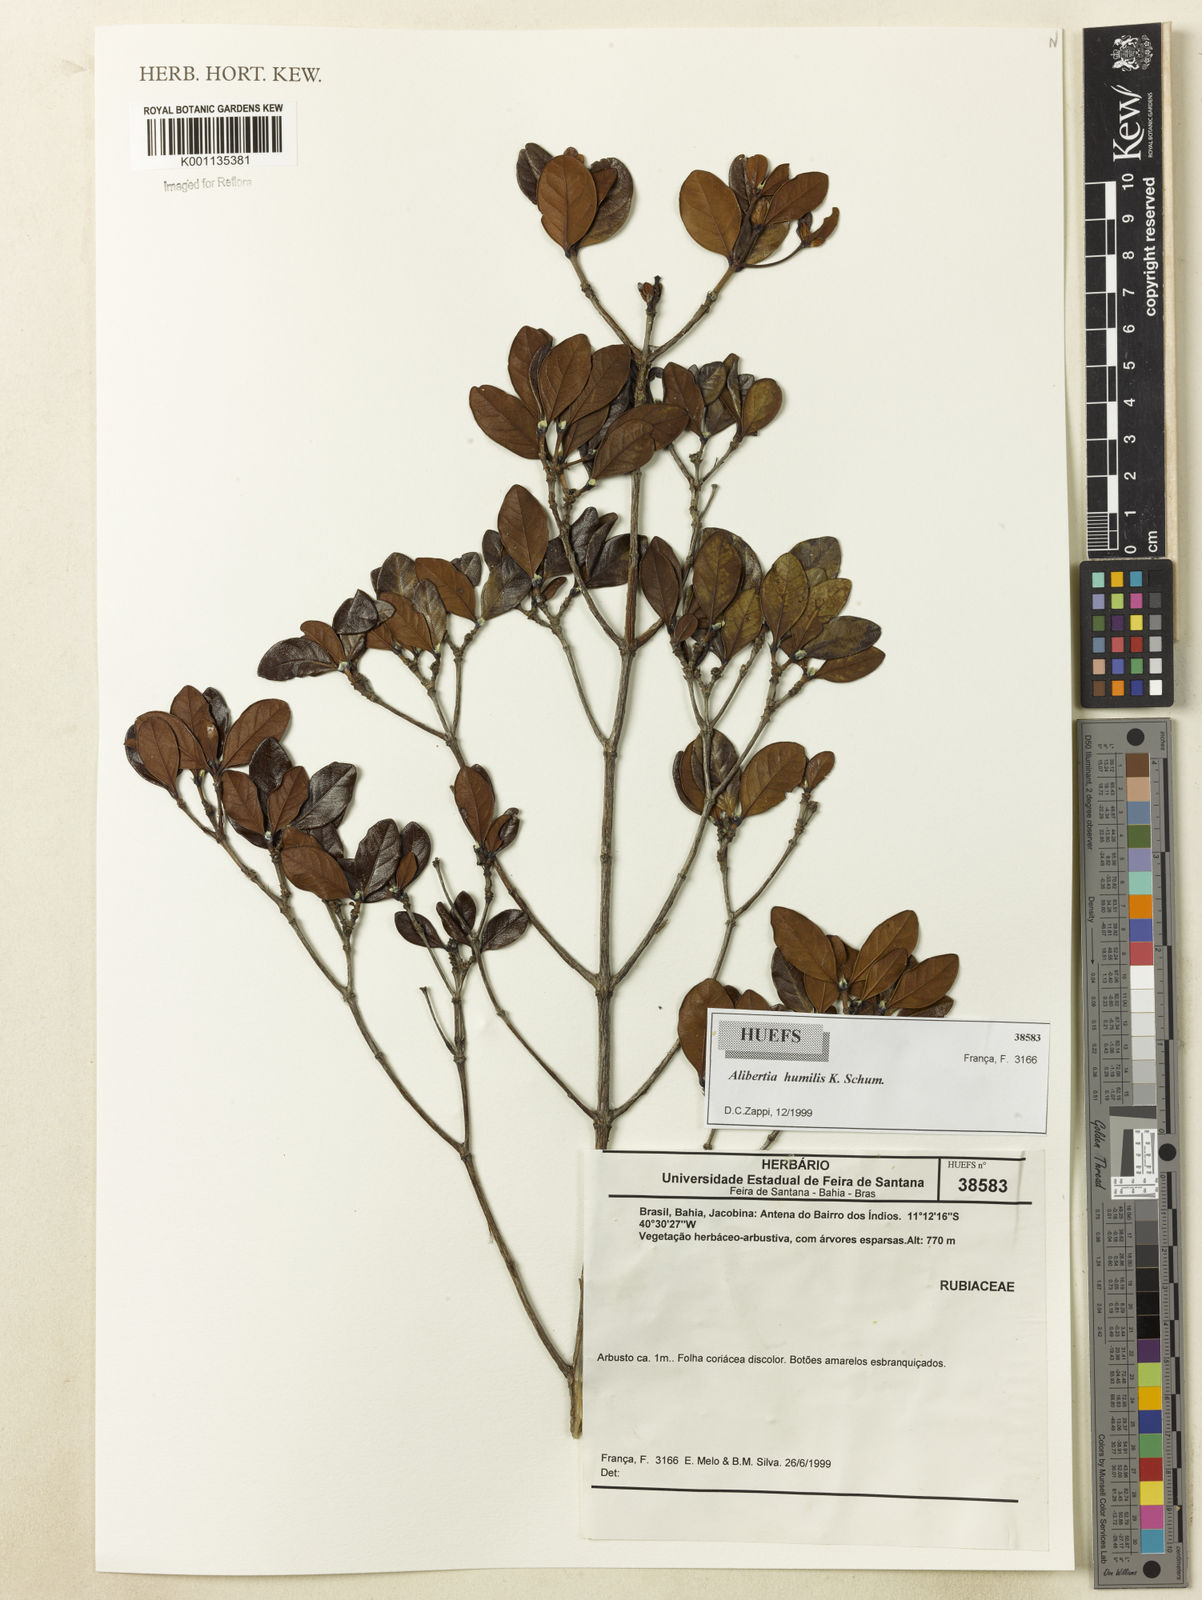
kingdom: Plantae
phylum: Tracheophyta
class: Magnoliopsida
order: Gentianales
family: Rubiaceae
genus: Cordiera
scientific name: Cordiera humilis
